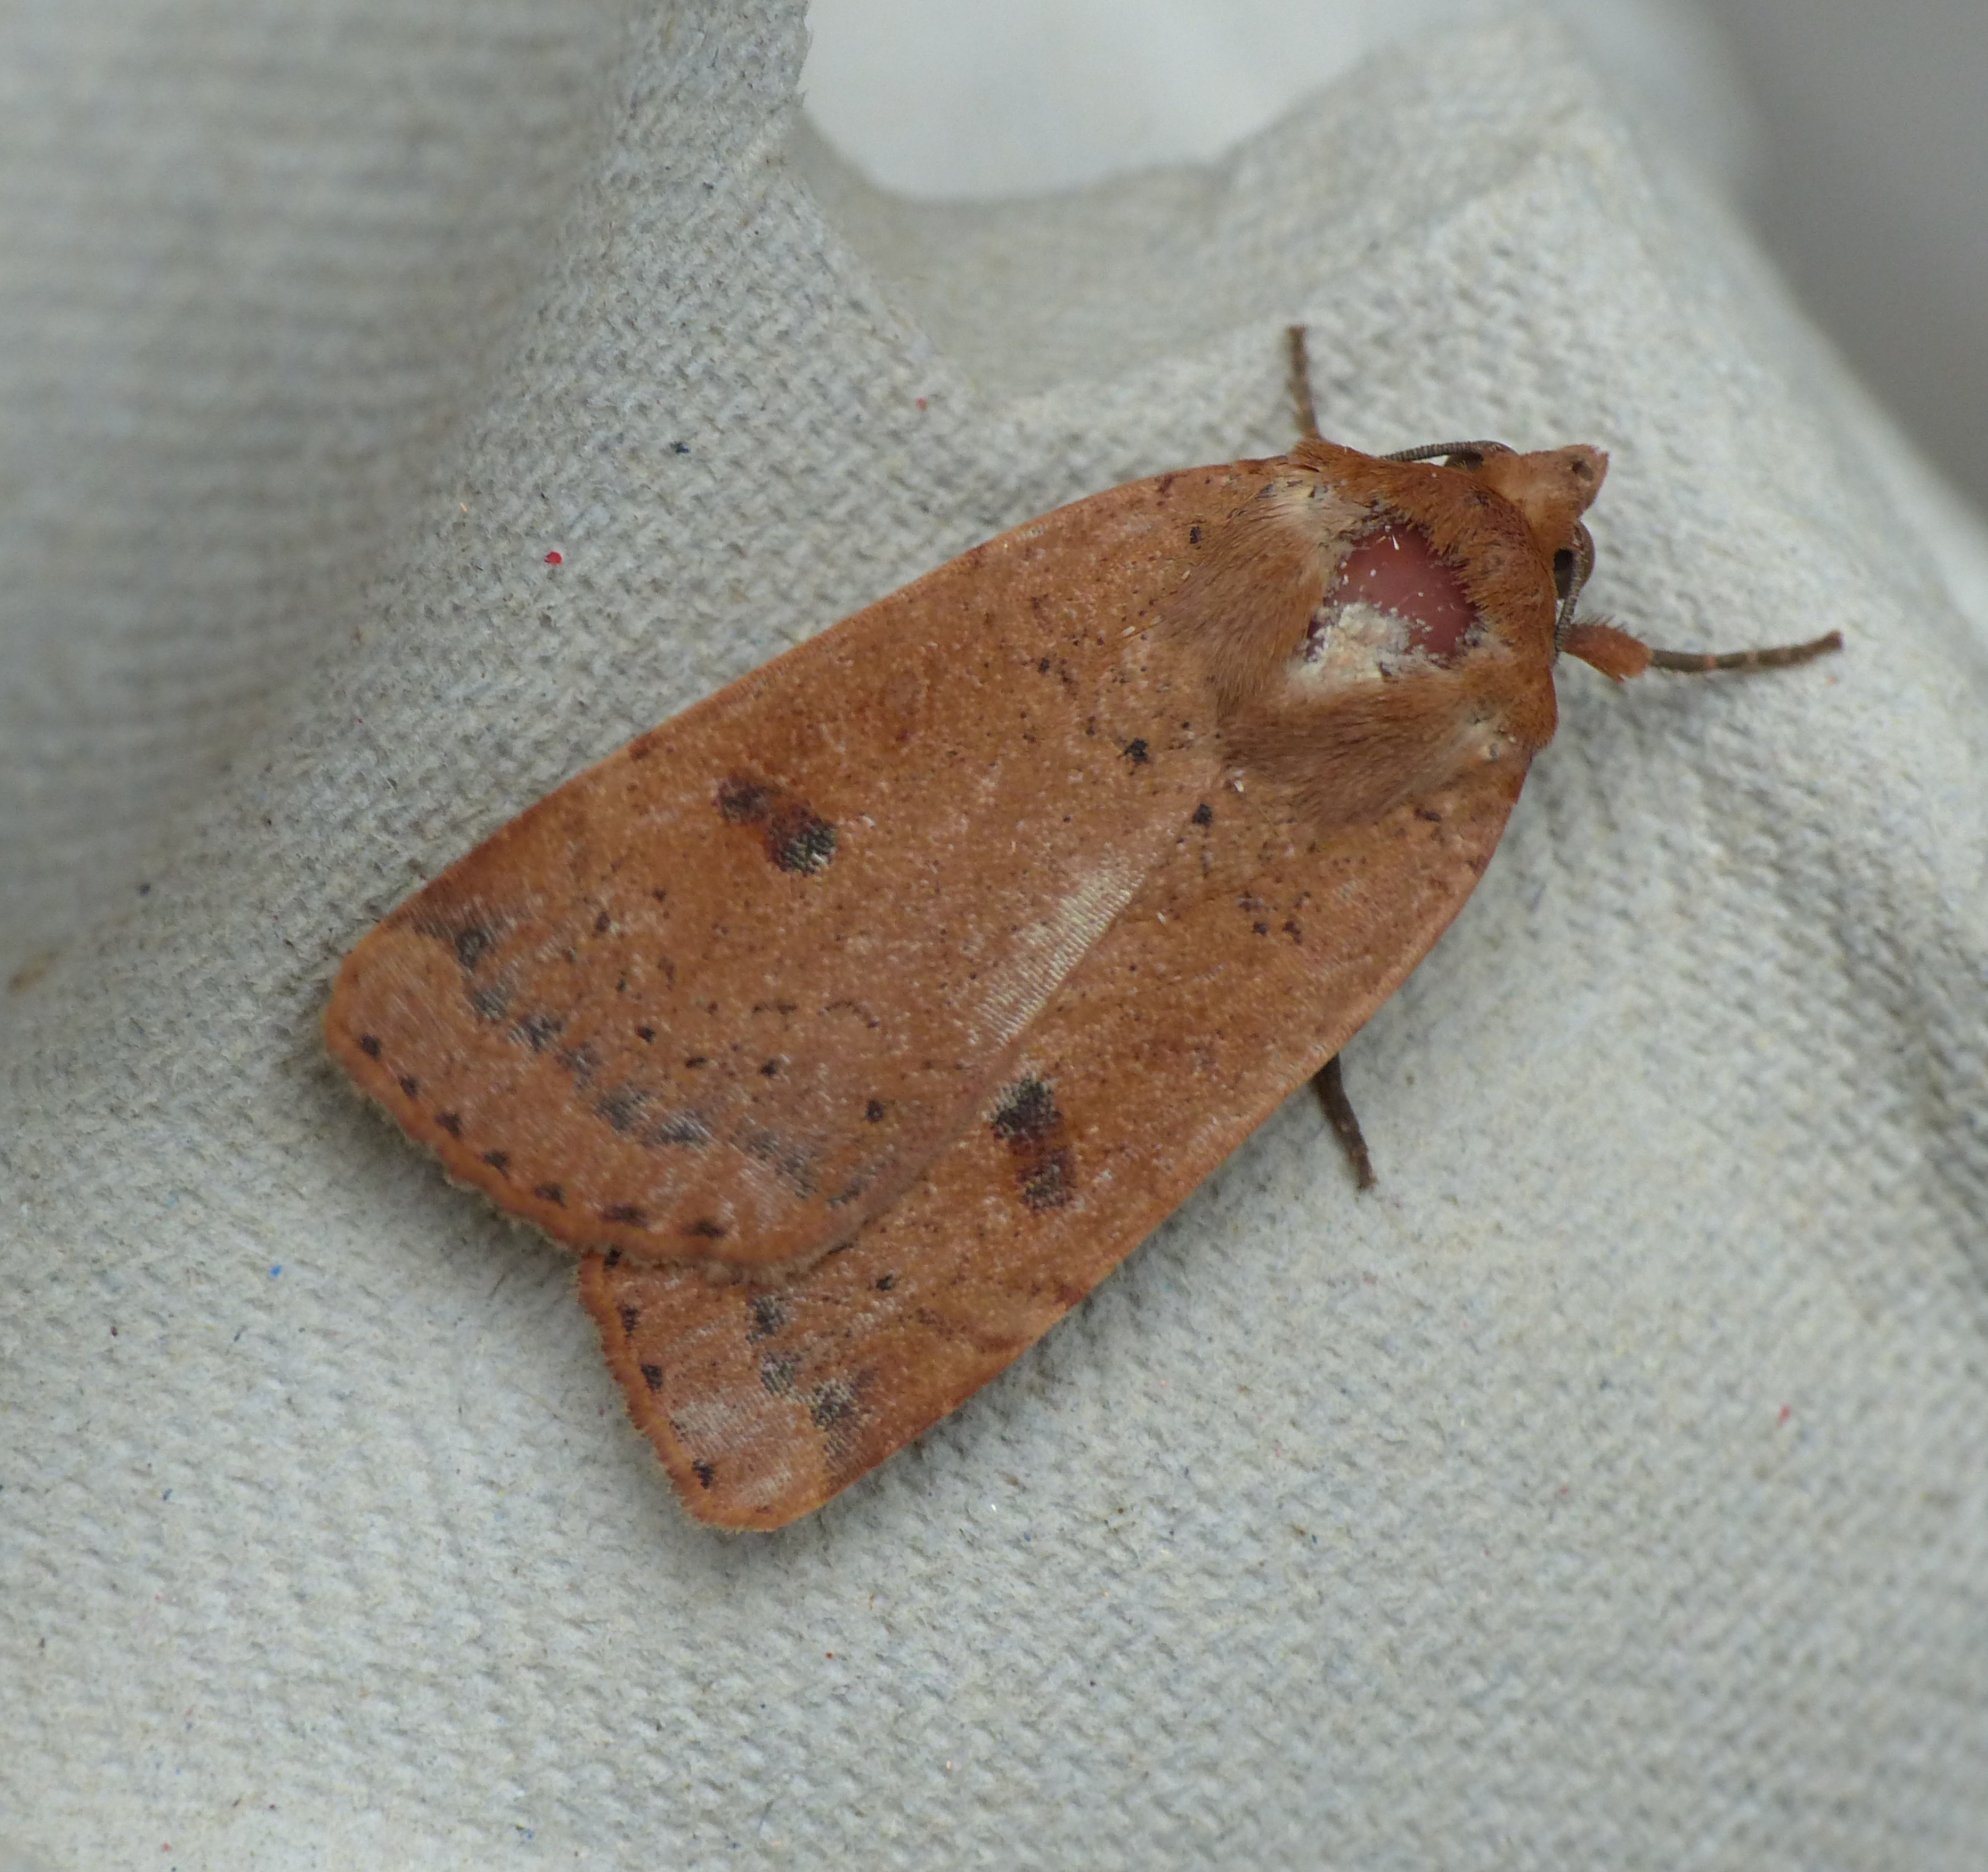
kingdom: Animalia
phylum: Arthropoda
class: Insecta
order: Lepidoptera
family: Noctuidae
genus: Noctua
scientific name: Noctua comes
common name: Svagtskygget smutugle
